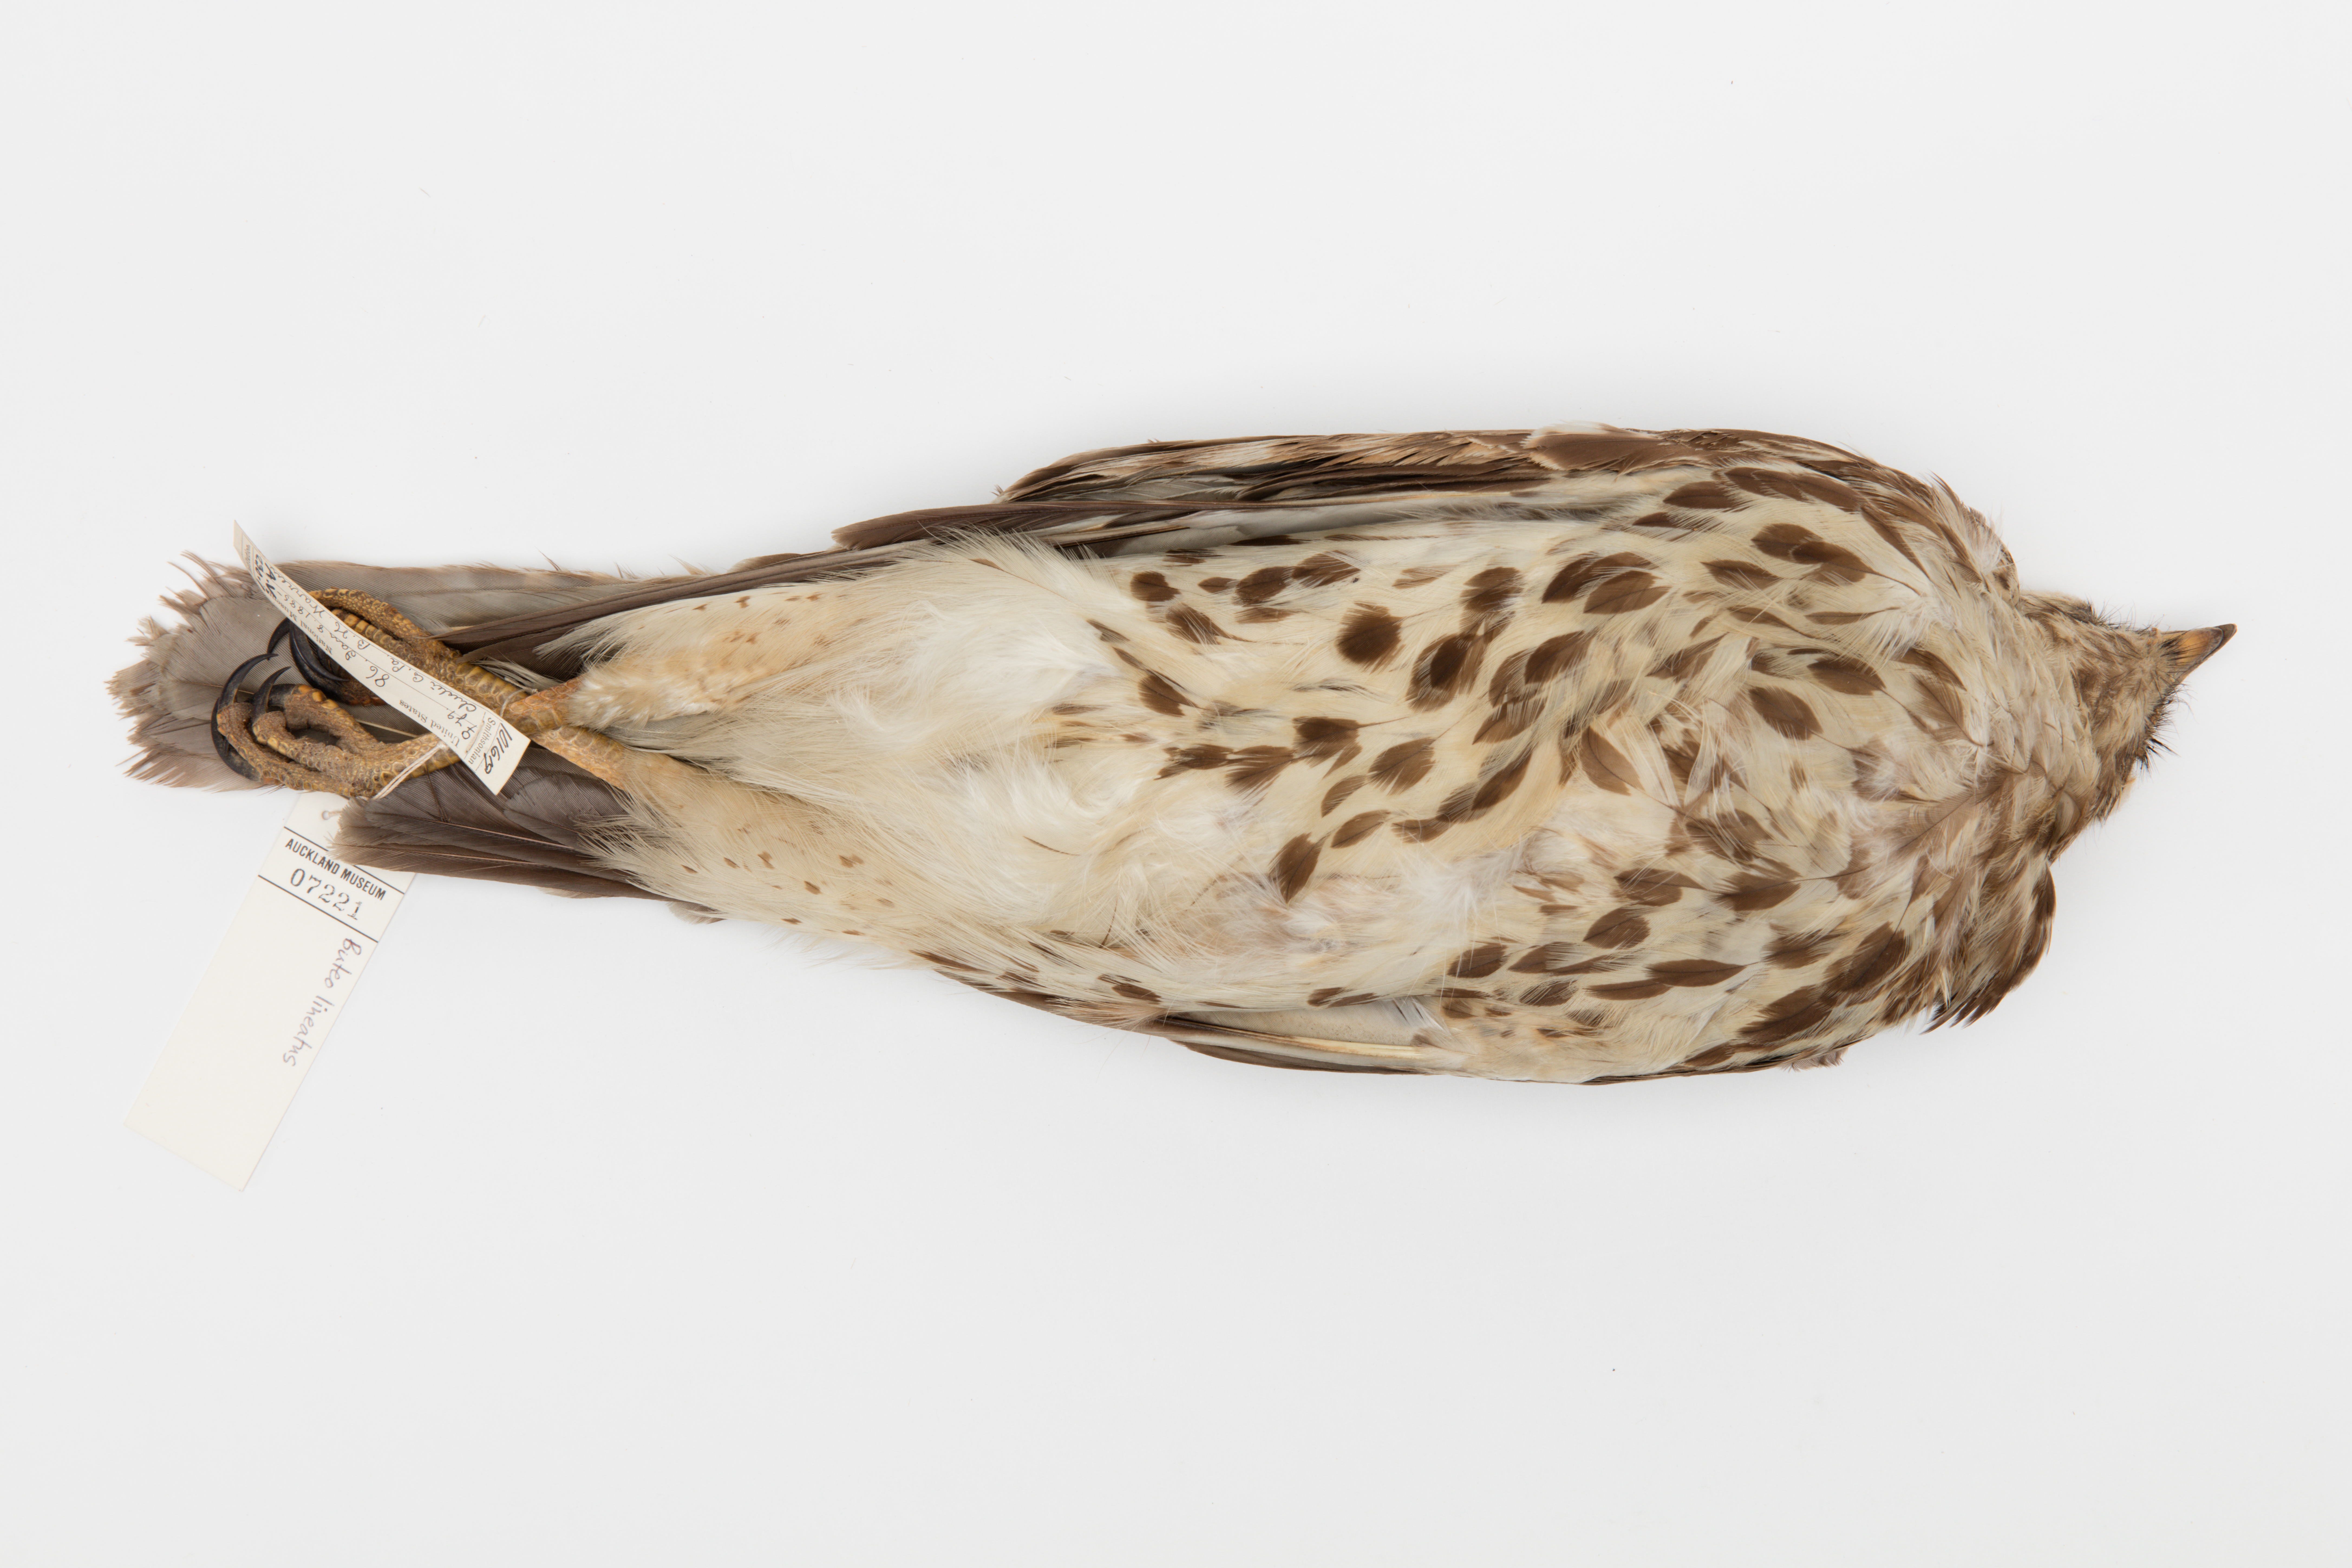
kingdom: Animalia
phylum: Chordata
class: Aves
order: Accipitriformes
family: Accipitridae
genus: Buteo
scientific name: Buteo lineatus
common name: Red-shouldered hawk
